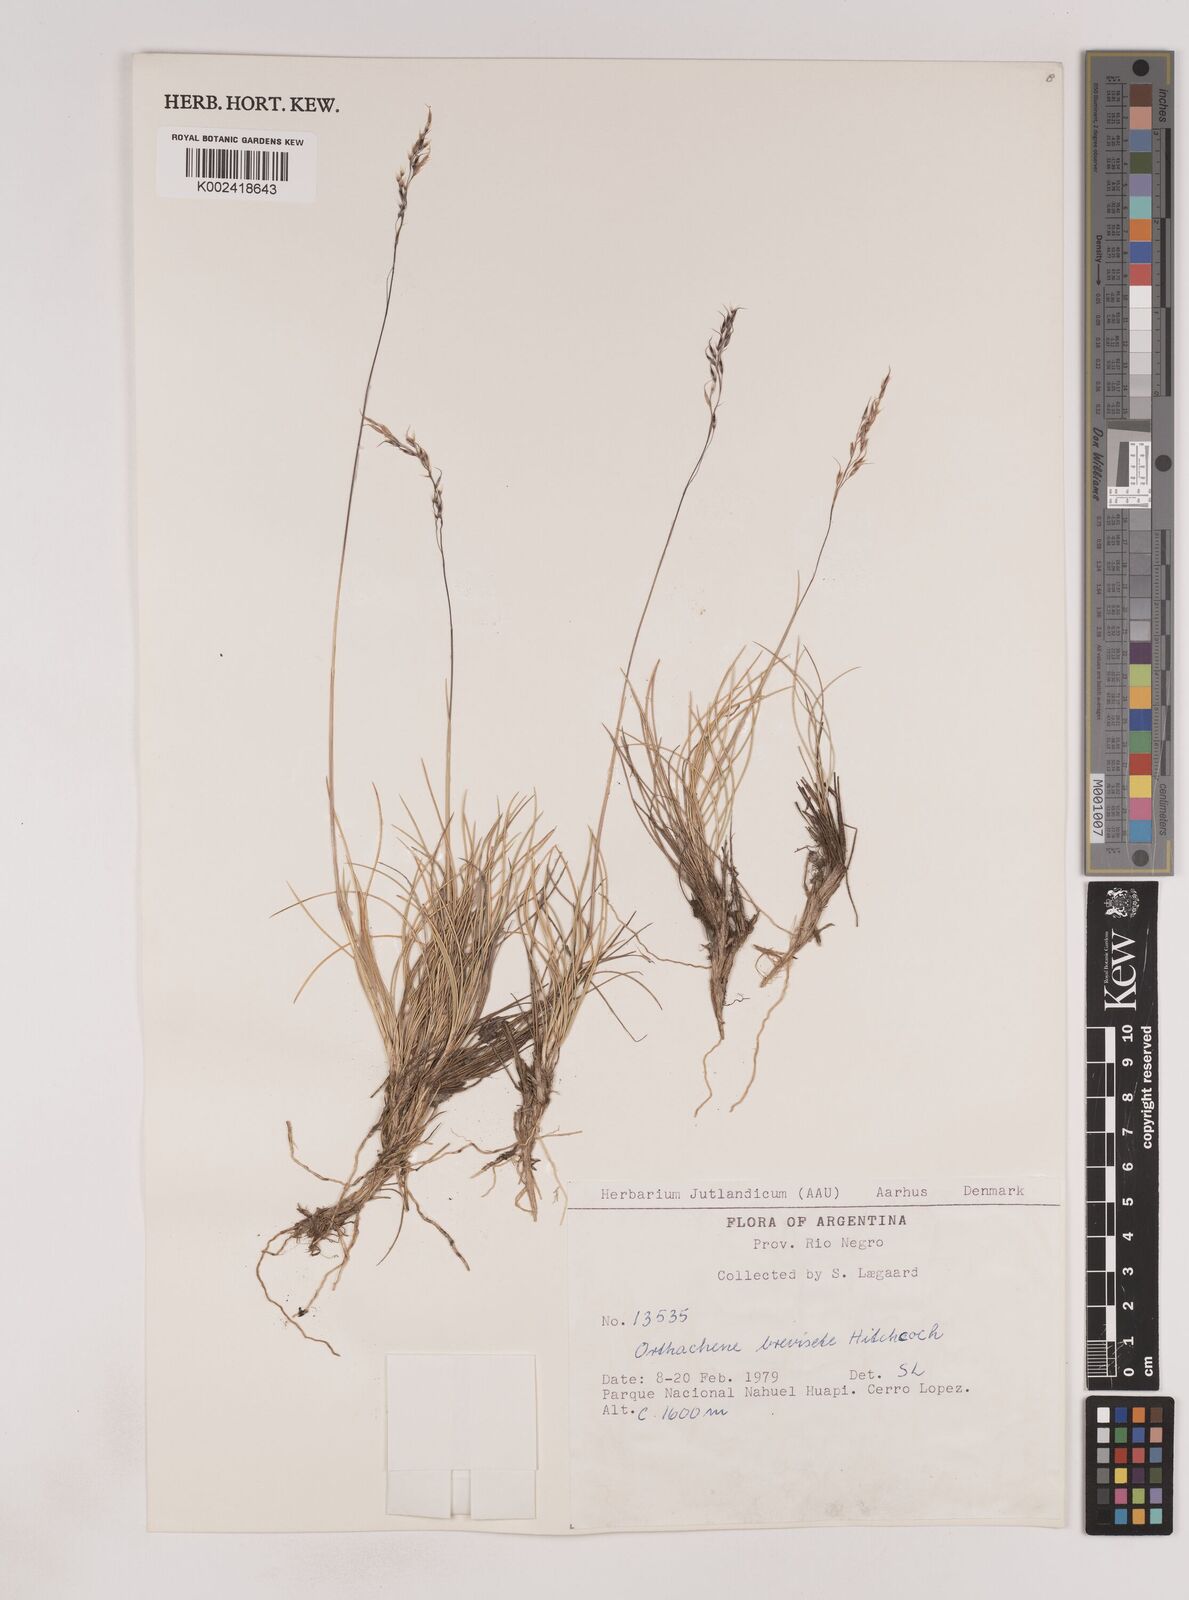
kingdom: Plantae
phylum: Tracheophyta
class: Liliopsida
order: Poales
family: Poaceae
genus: Ortachne
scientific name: Ortachne breviseta
